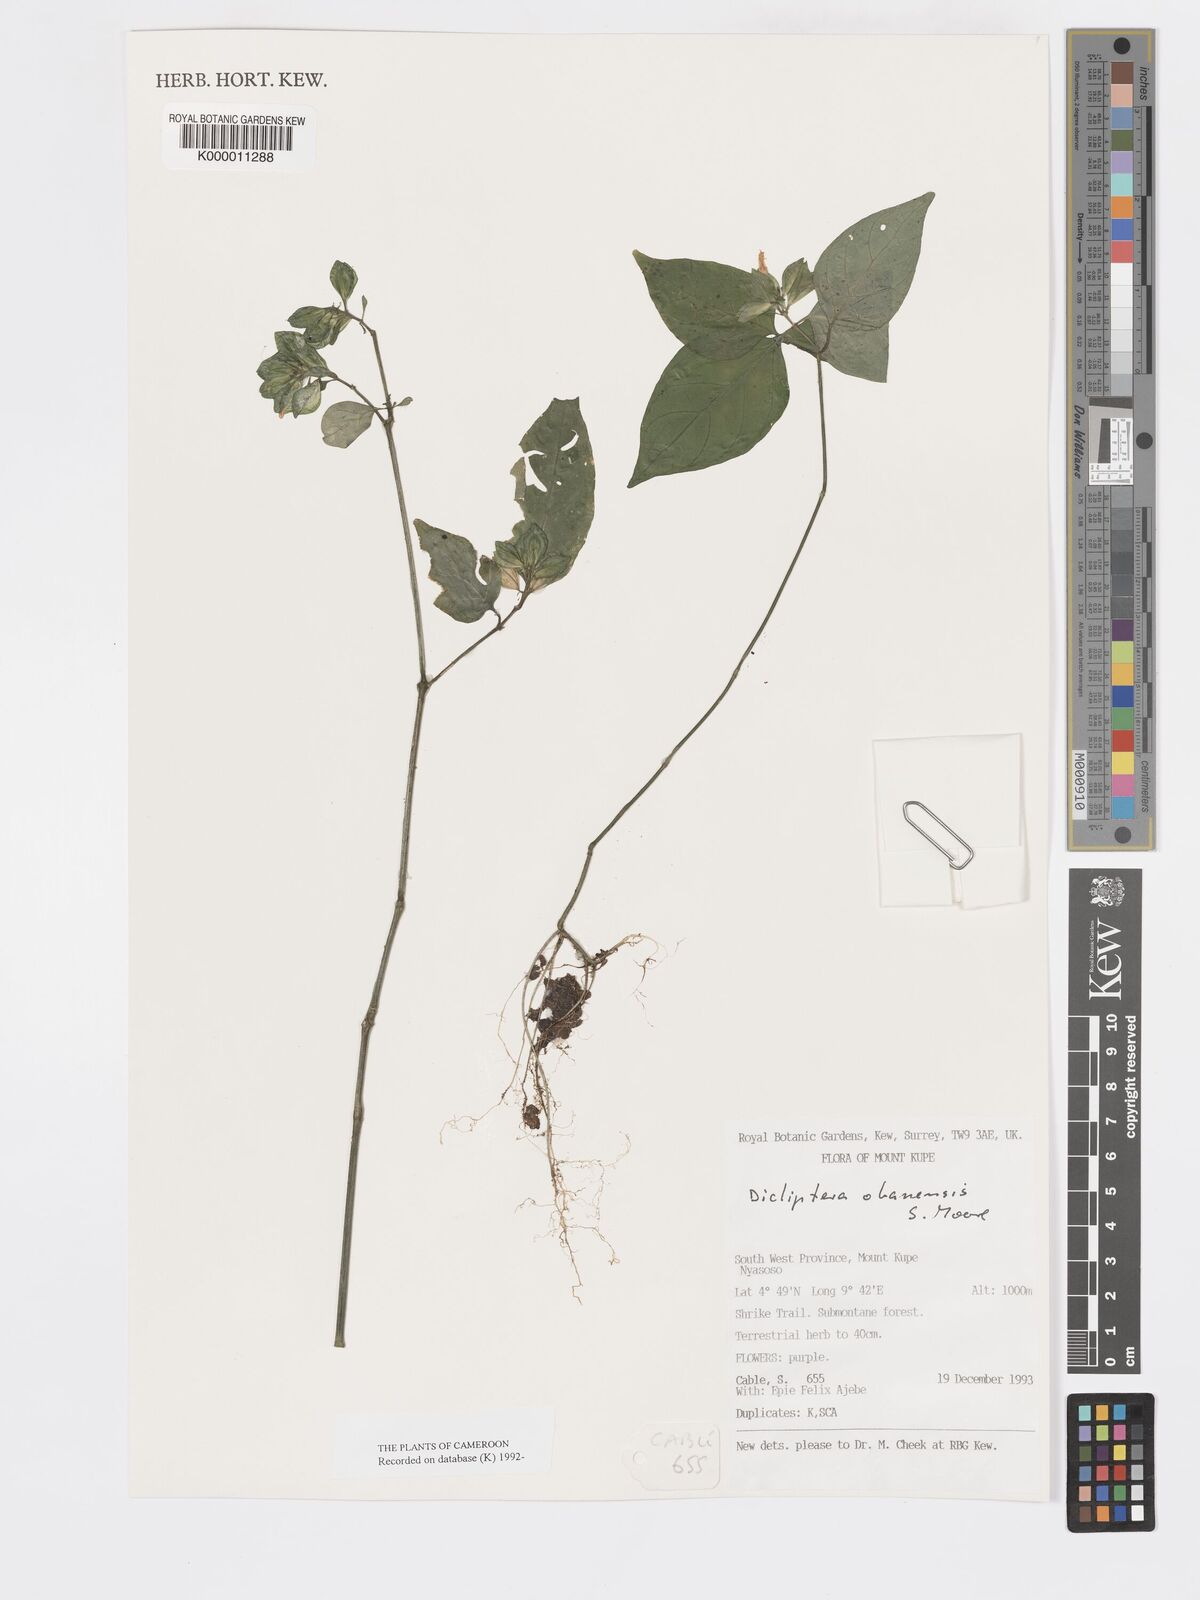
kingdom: Plantae
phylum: Tracheophyta
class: Magnoliopsida
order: Lamiales
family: Acanthaceae
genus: Dicliptera
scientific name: Dicliptera elliotii
